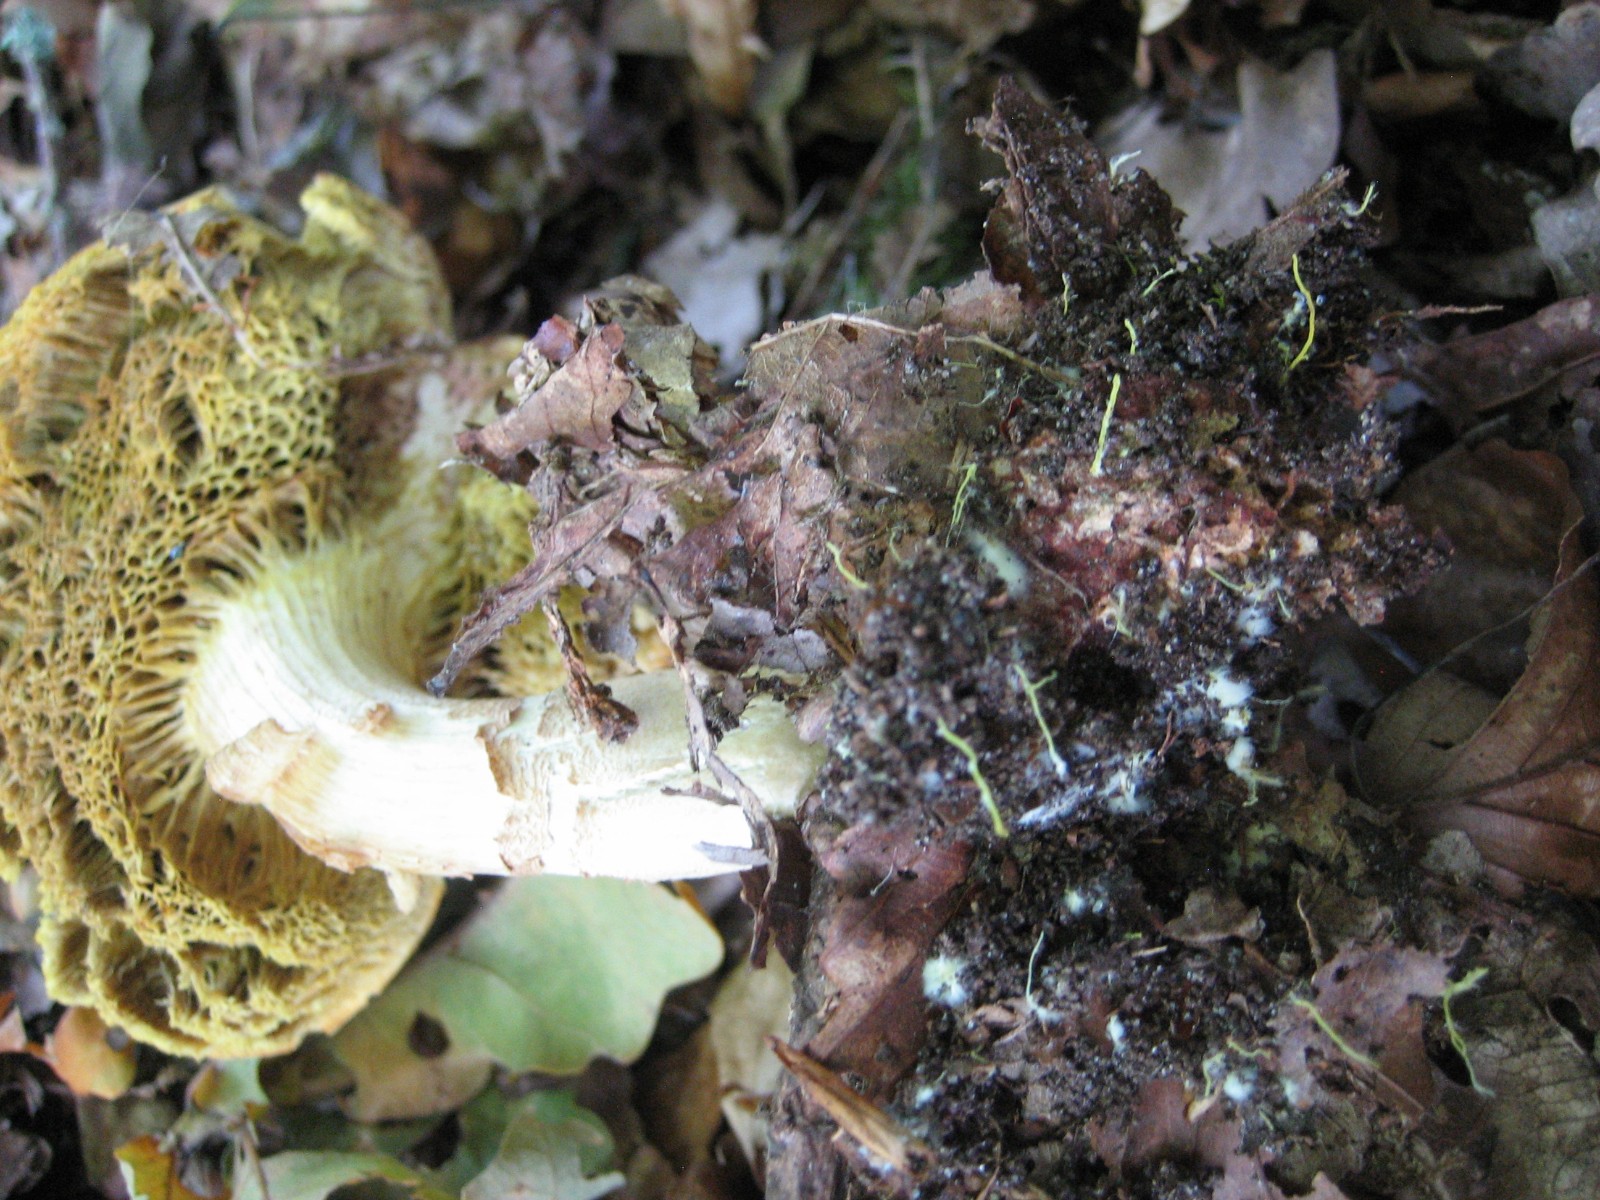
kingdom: Fungi
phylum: Basidiomycota
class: Agaricomycetes
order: Boletales
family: Boletaceae
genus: Xerocomus
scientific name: Xerocomus
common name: filtrørhat
